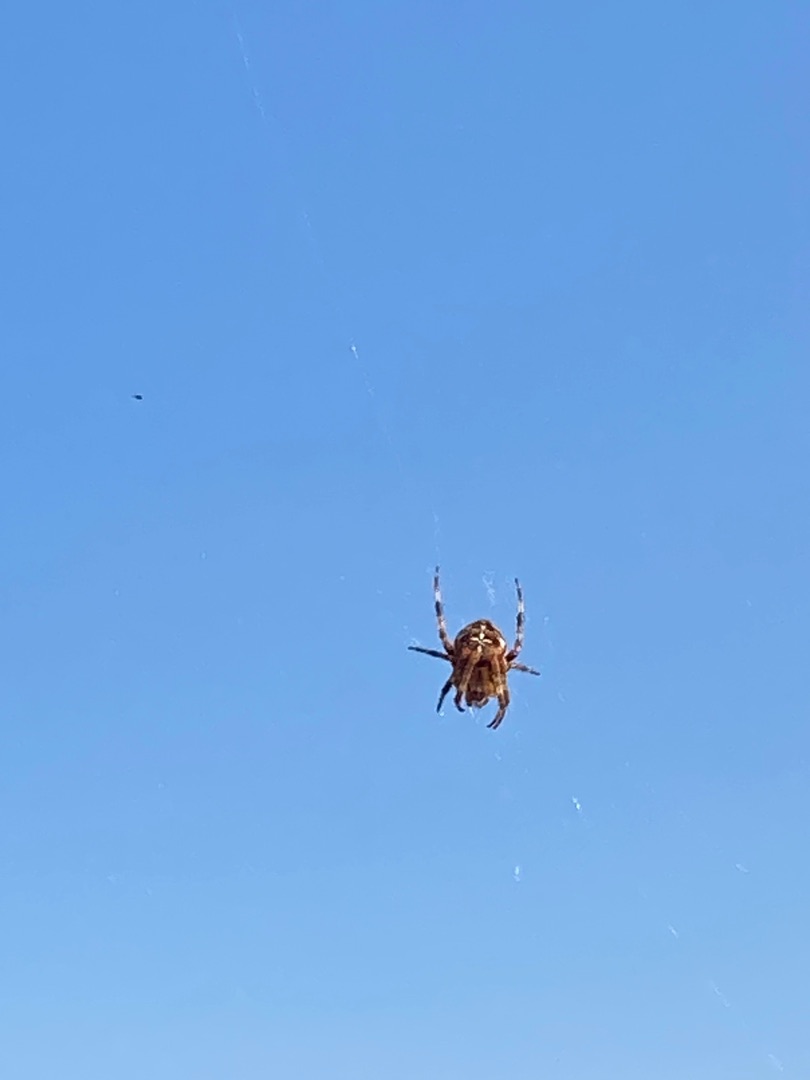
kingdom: Animalia
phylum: Arthropoda
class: Arachnida
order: Araneae
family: Araneidae
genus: Araneus
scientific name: Araneus diadematus
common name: Korsedderkop
